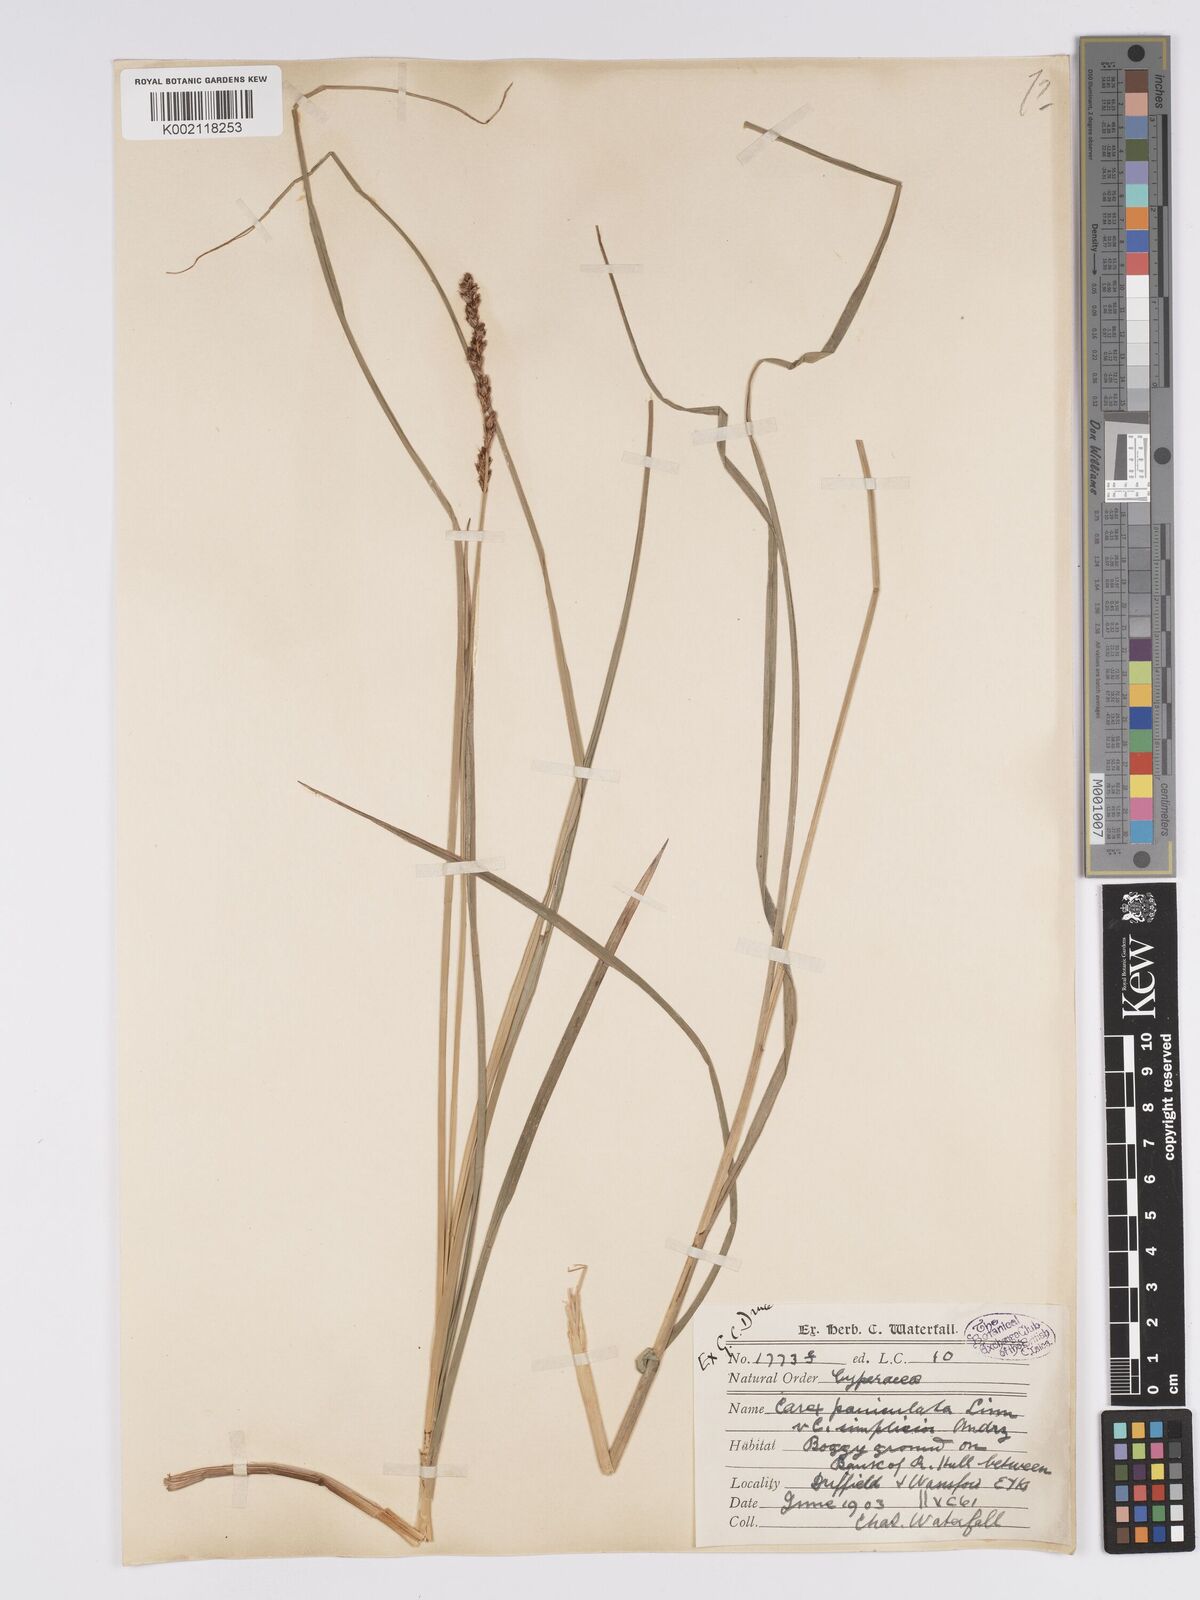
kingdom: Plantae
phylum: Tracheophyta
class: Liliopsida
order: Poales
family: Cyperaceae
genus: Carex
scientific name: Carex paniculata
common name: Greater tussock-sedge
